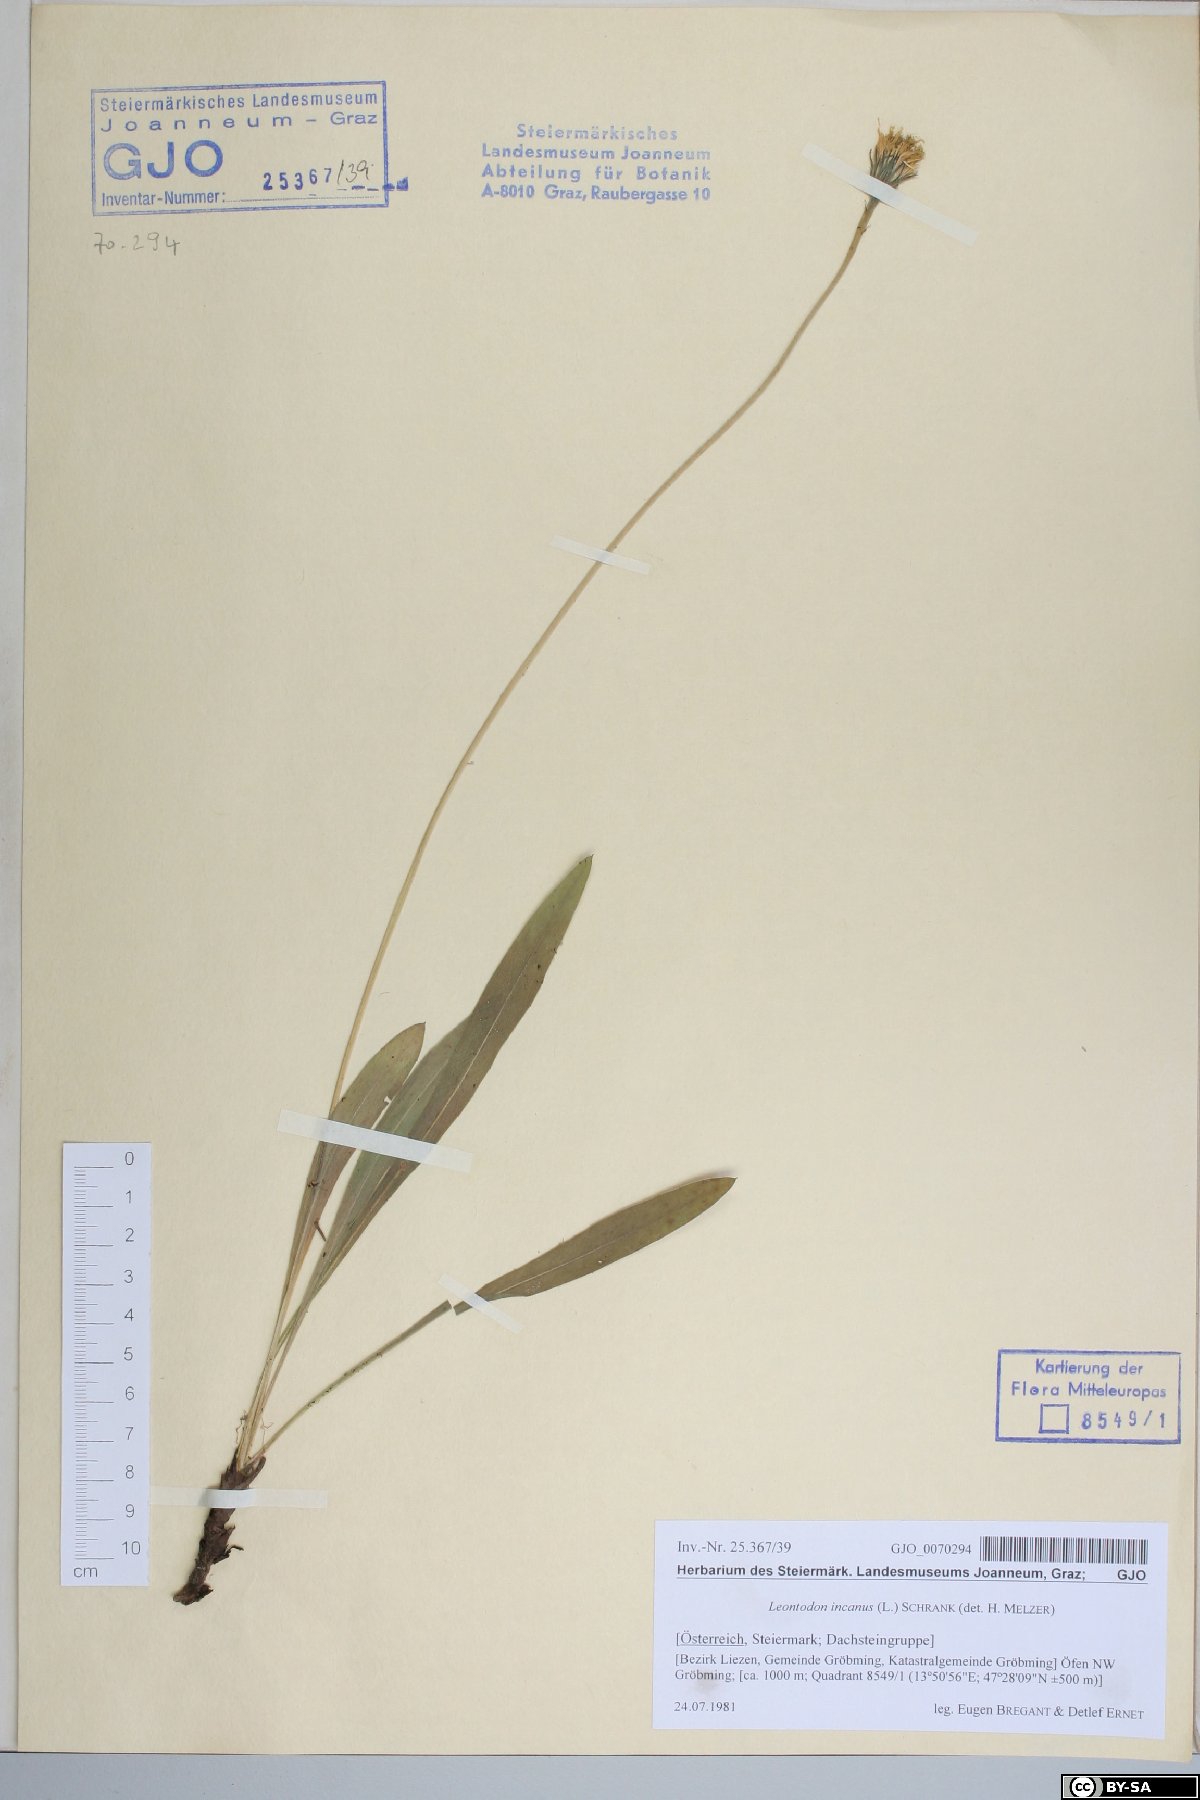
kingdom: Plantae
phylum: Tracheophyta
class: Magnoliopsida
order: Asterales
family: Asteraceae
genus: Leontodon
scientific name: Leontodon incanus
